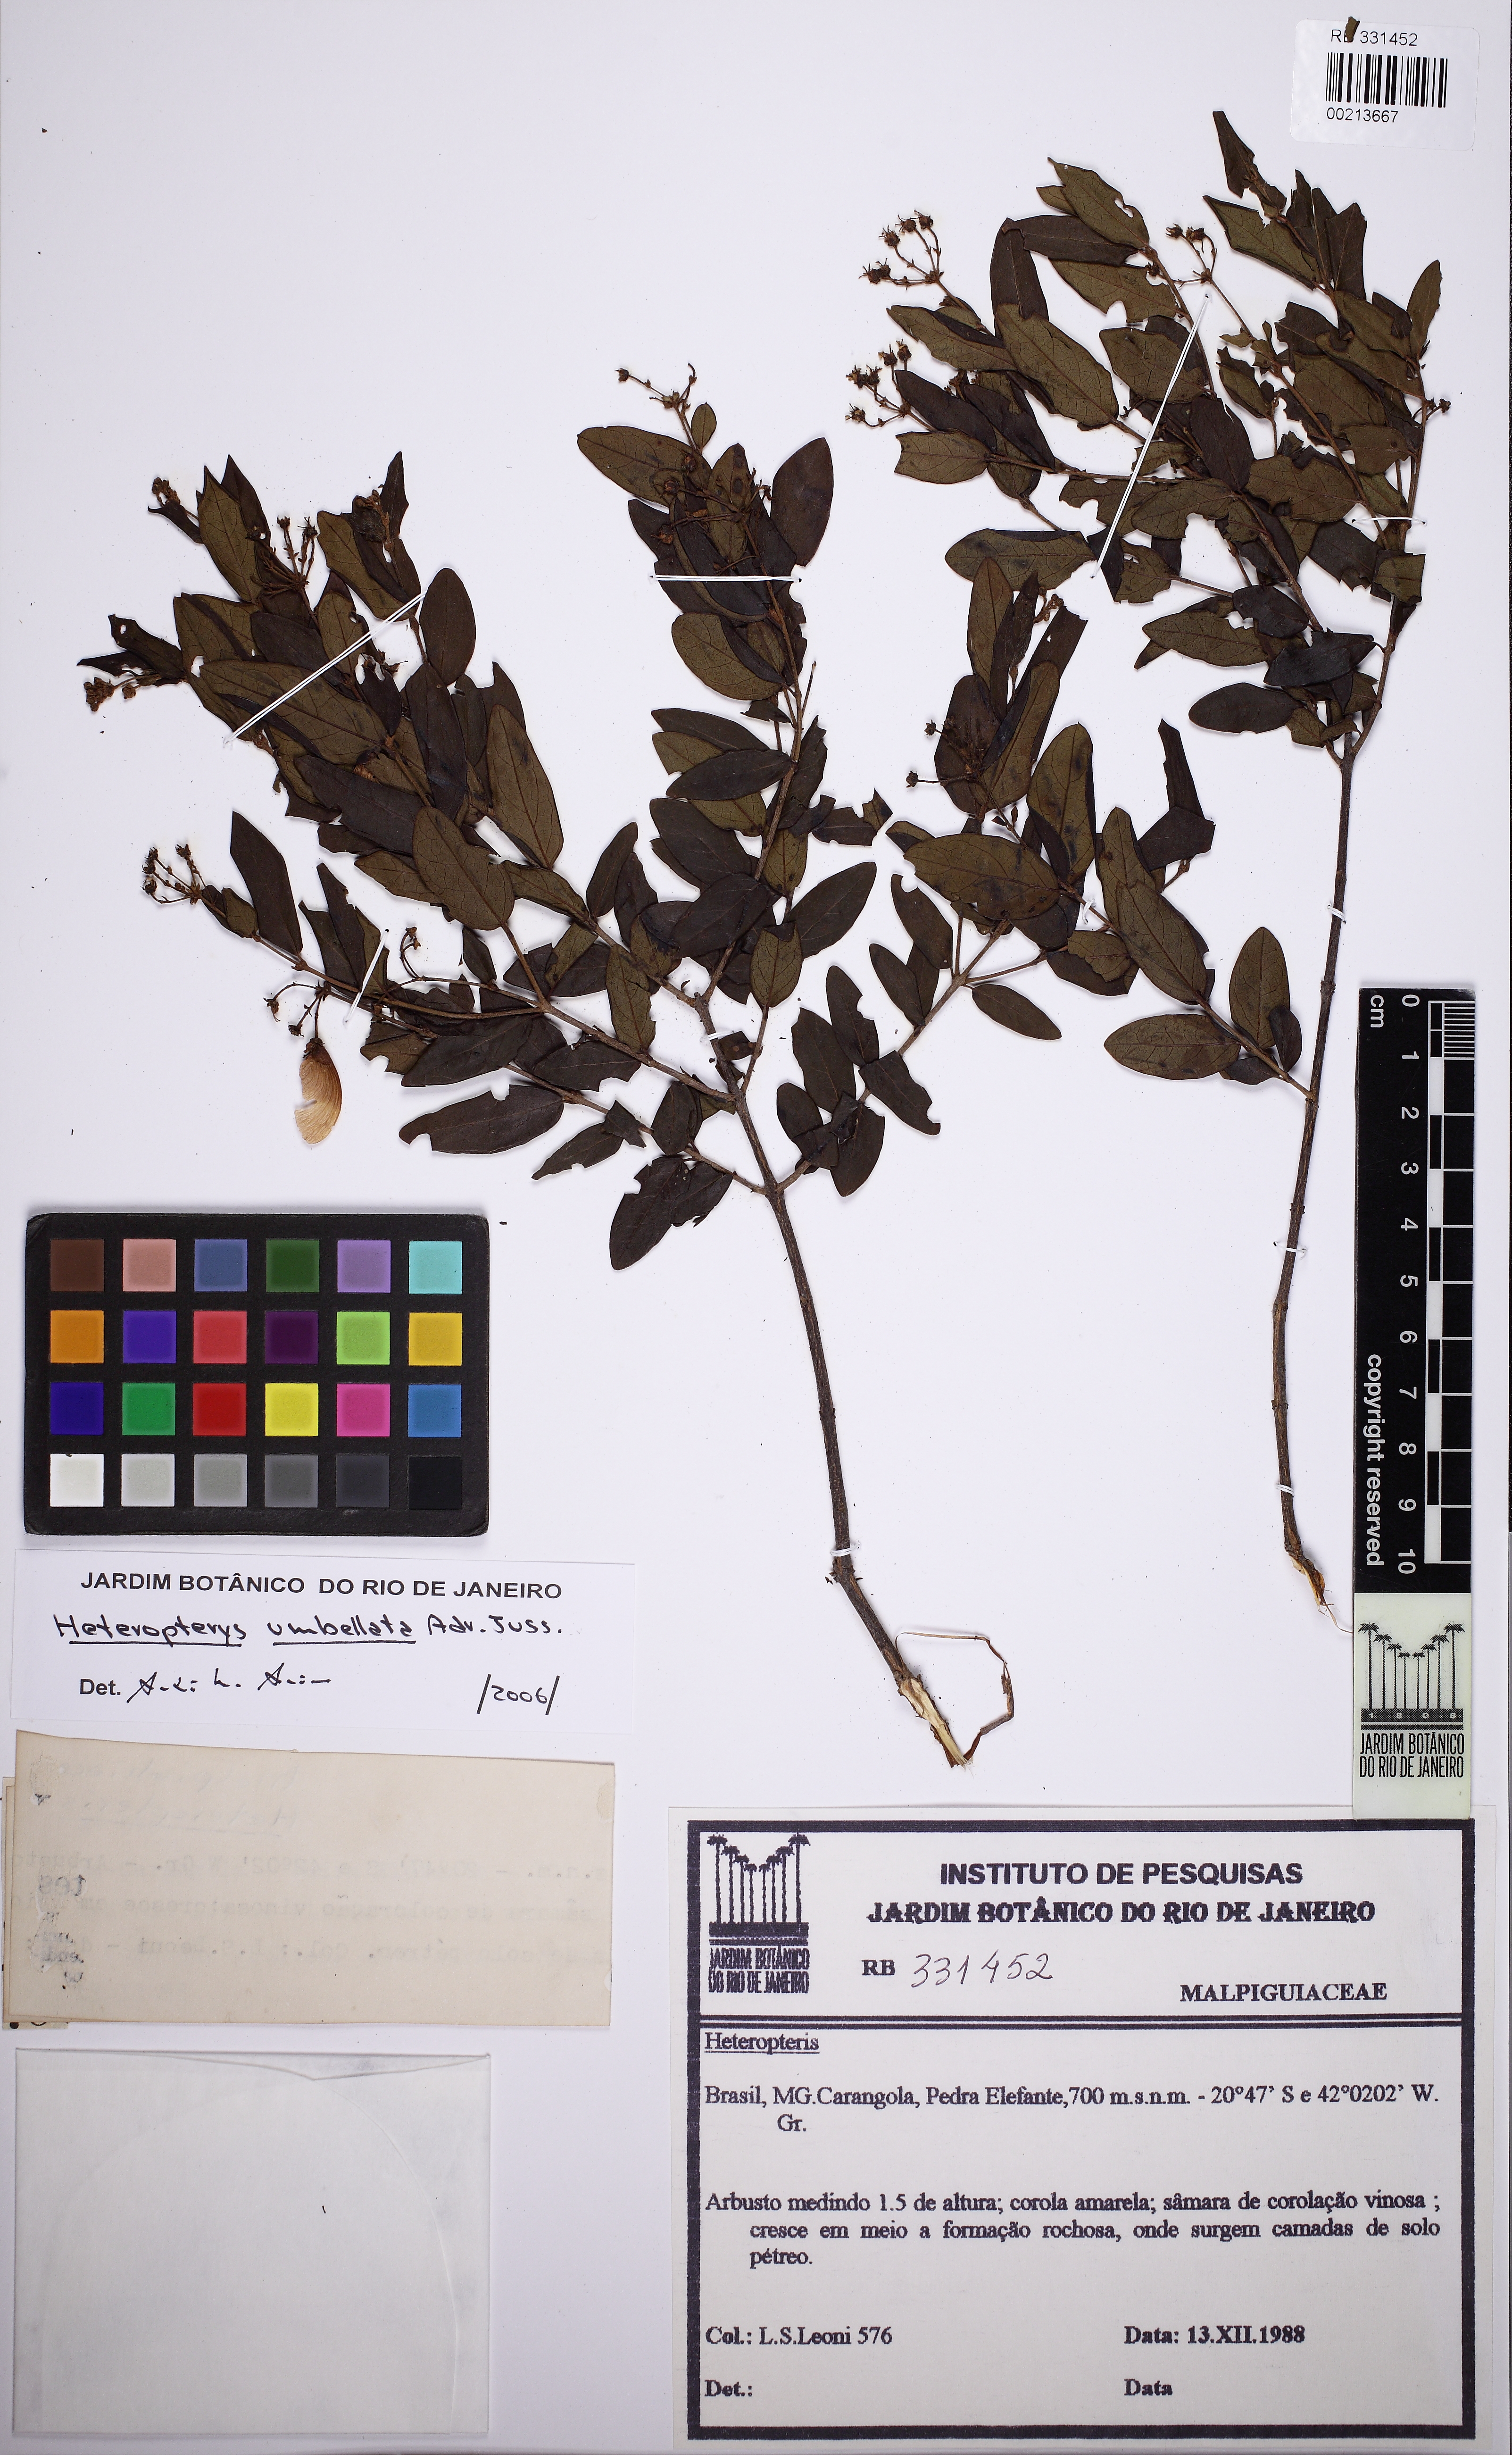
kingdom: Plantae
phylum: Tracheophyta
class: Magnoliopsida
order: Malpighiales
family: Malpighiaceae
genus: Heteropterys
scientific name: Heteropterys umbellata
